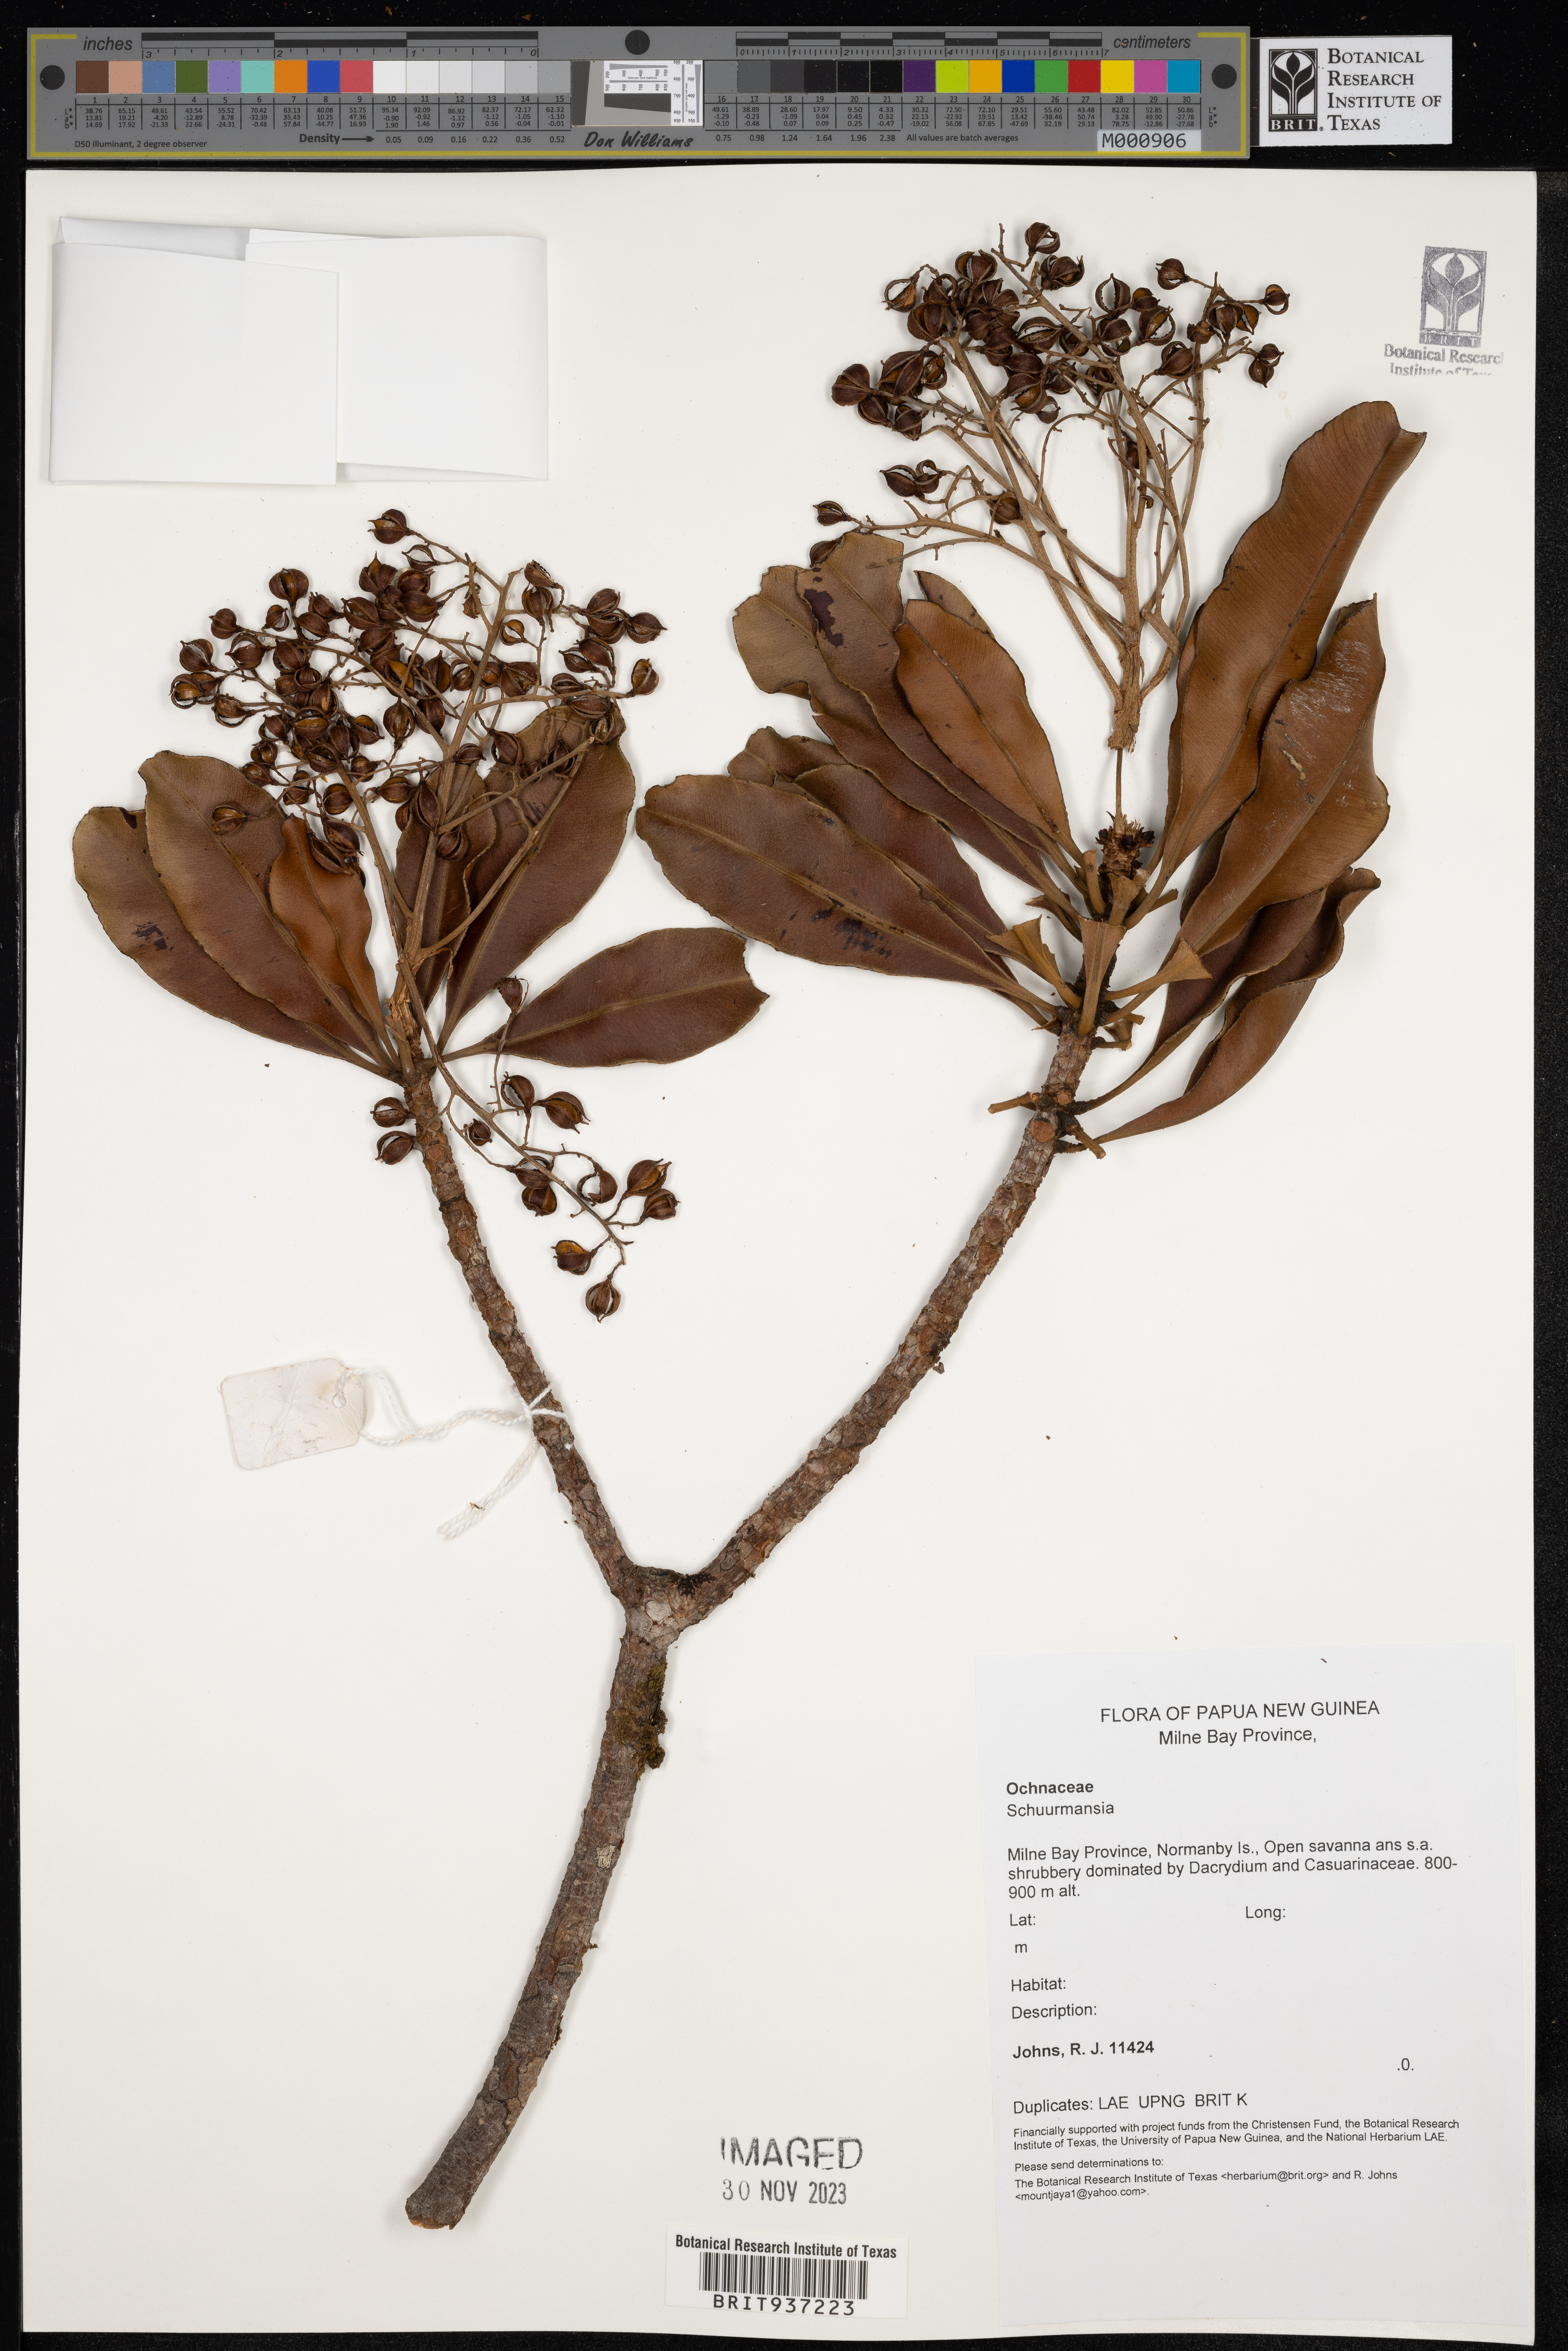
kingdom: Plantae
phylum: Tracheophyta
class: Magnoliopsida
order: Malpighiales
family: Ochnaceae
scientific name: Ochnaceae
